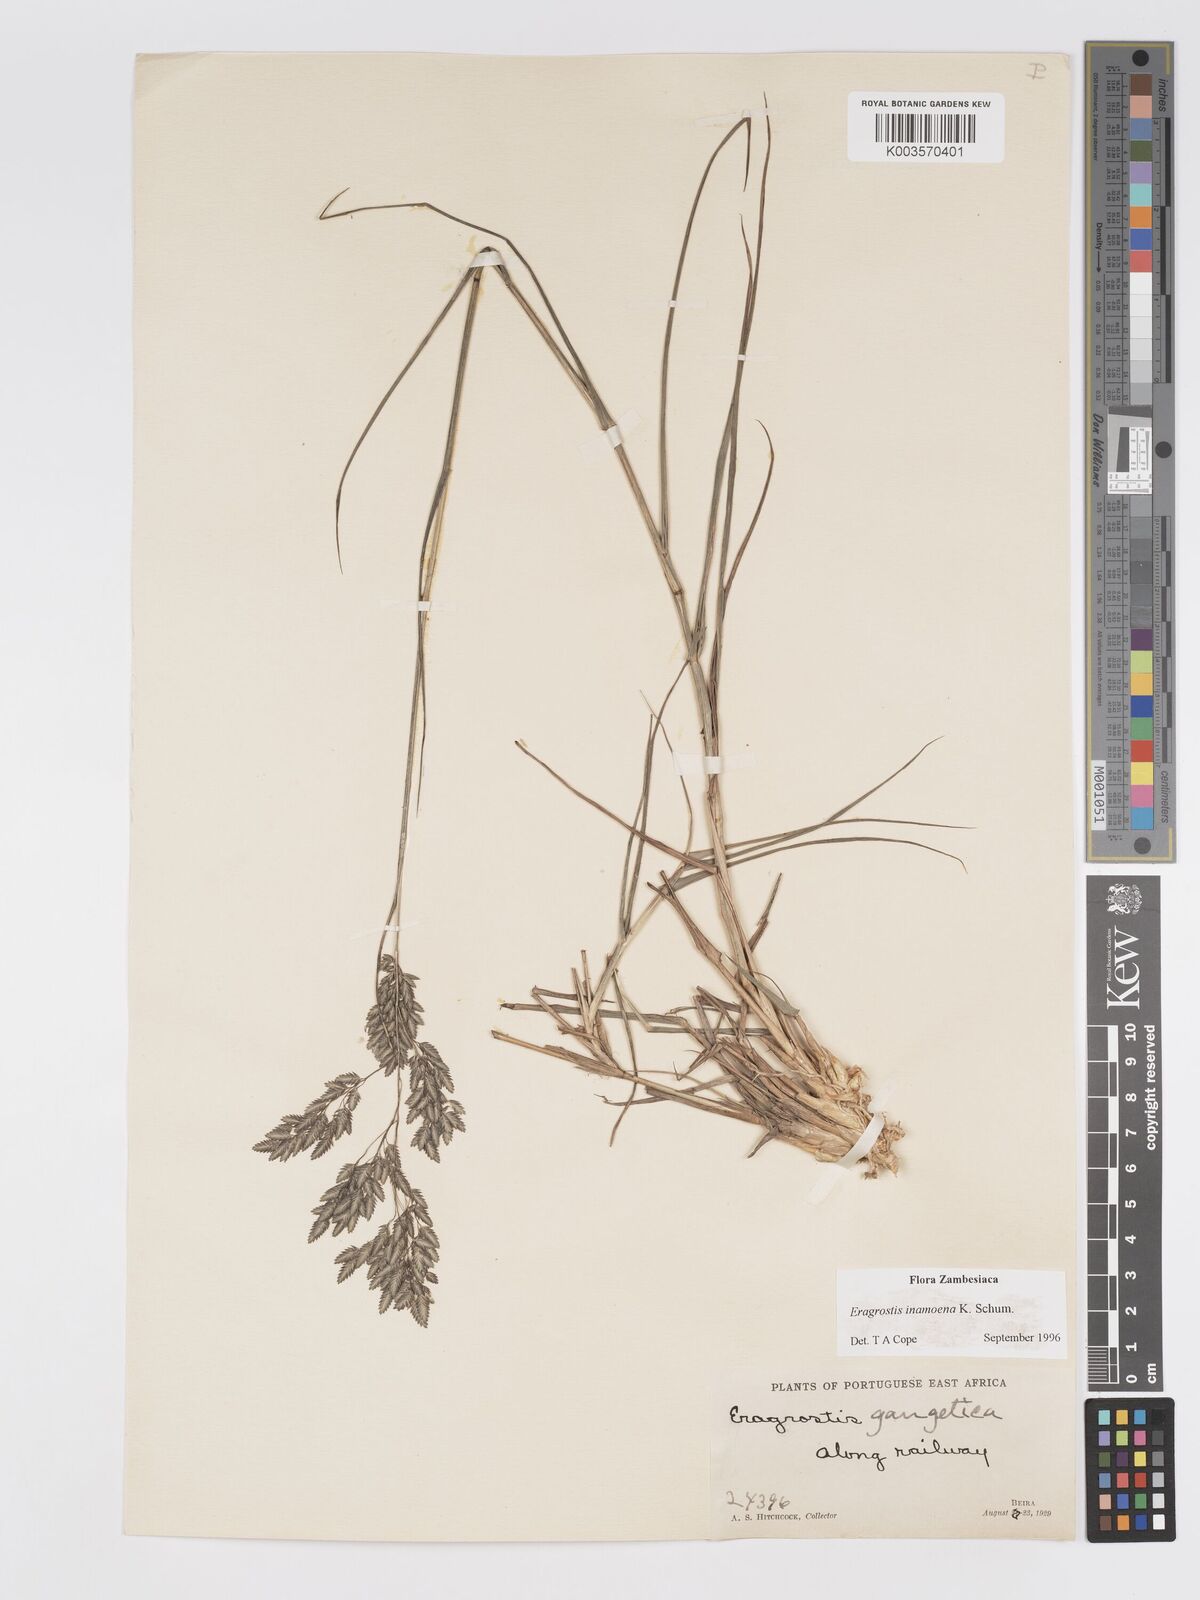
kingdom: Plantae
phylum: Tracheophyta
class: Liliopsida
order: Poales
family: Poaceae
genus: Eragrostis
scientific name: Eragrostis inamoena
